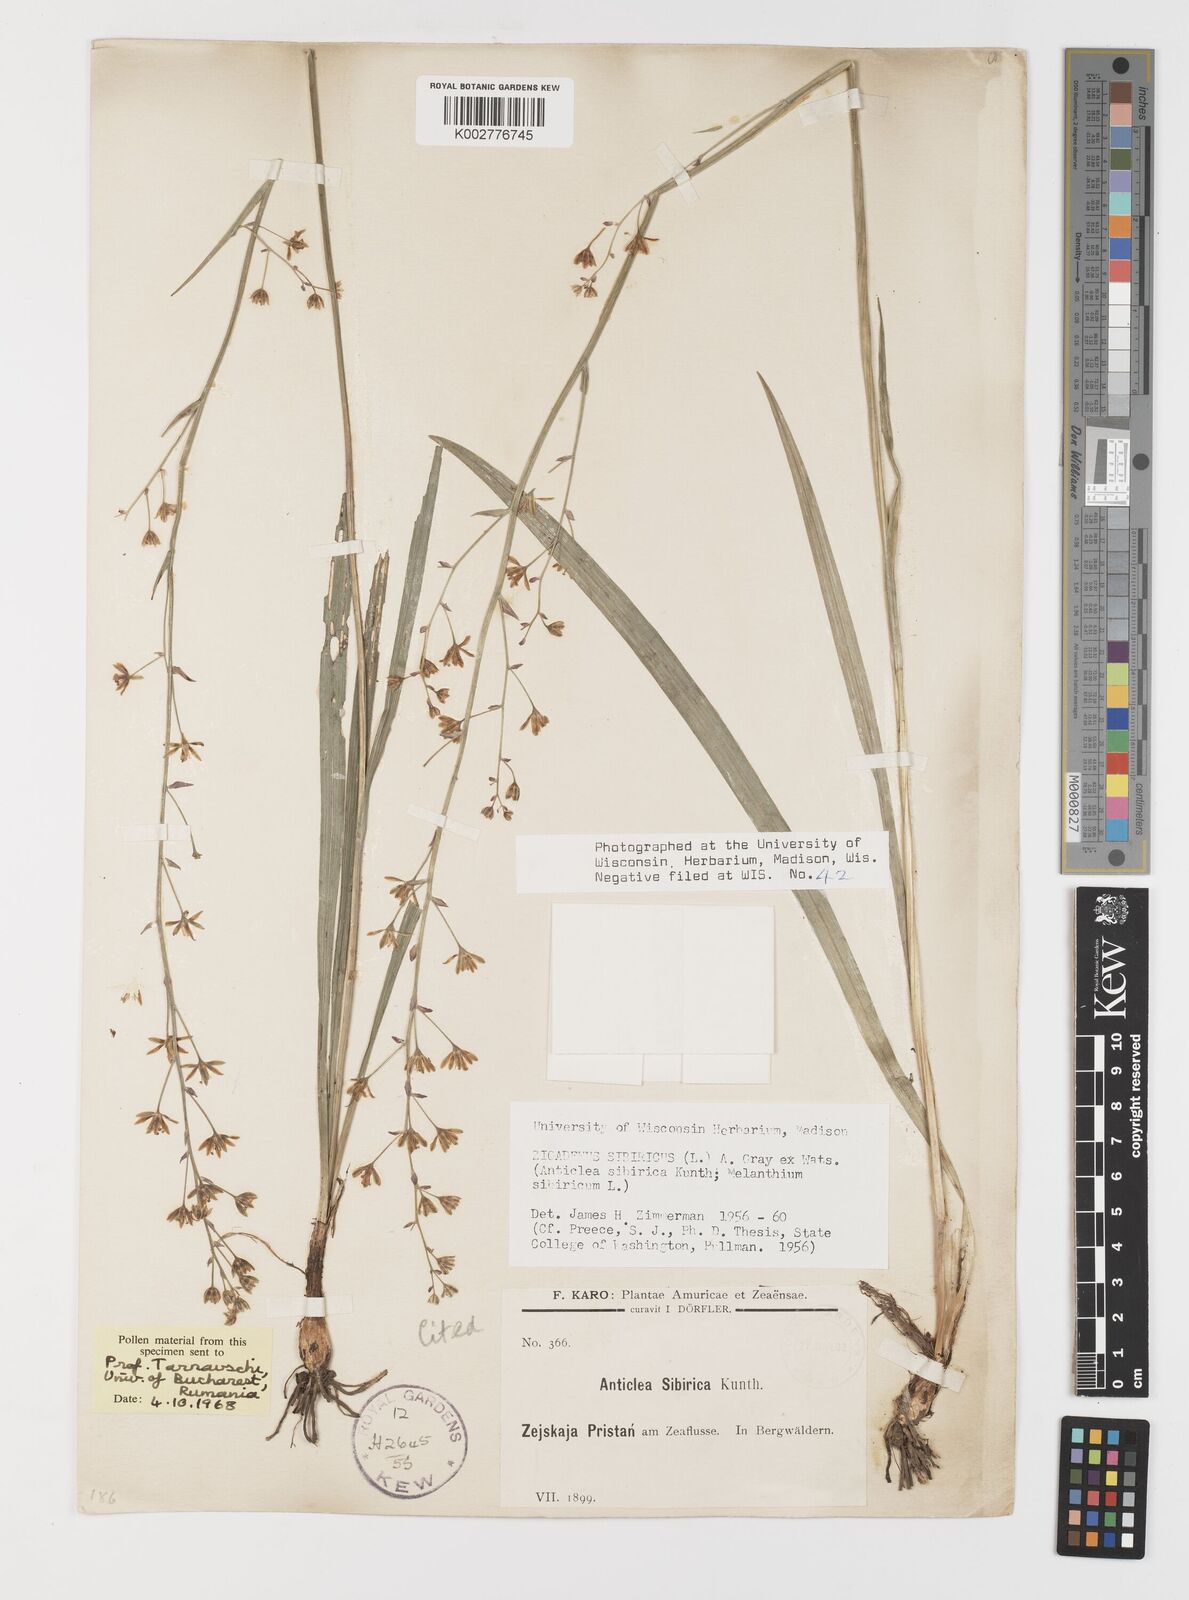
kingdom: Plantae
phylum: Tracheophyta
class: Liliopsida
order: Liliales
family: Melanthiaceae
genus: Anticlea
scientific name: Anticlea sibirica
